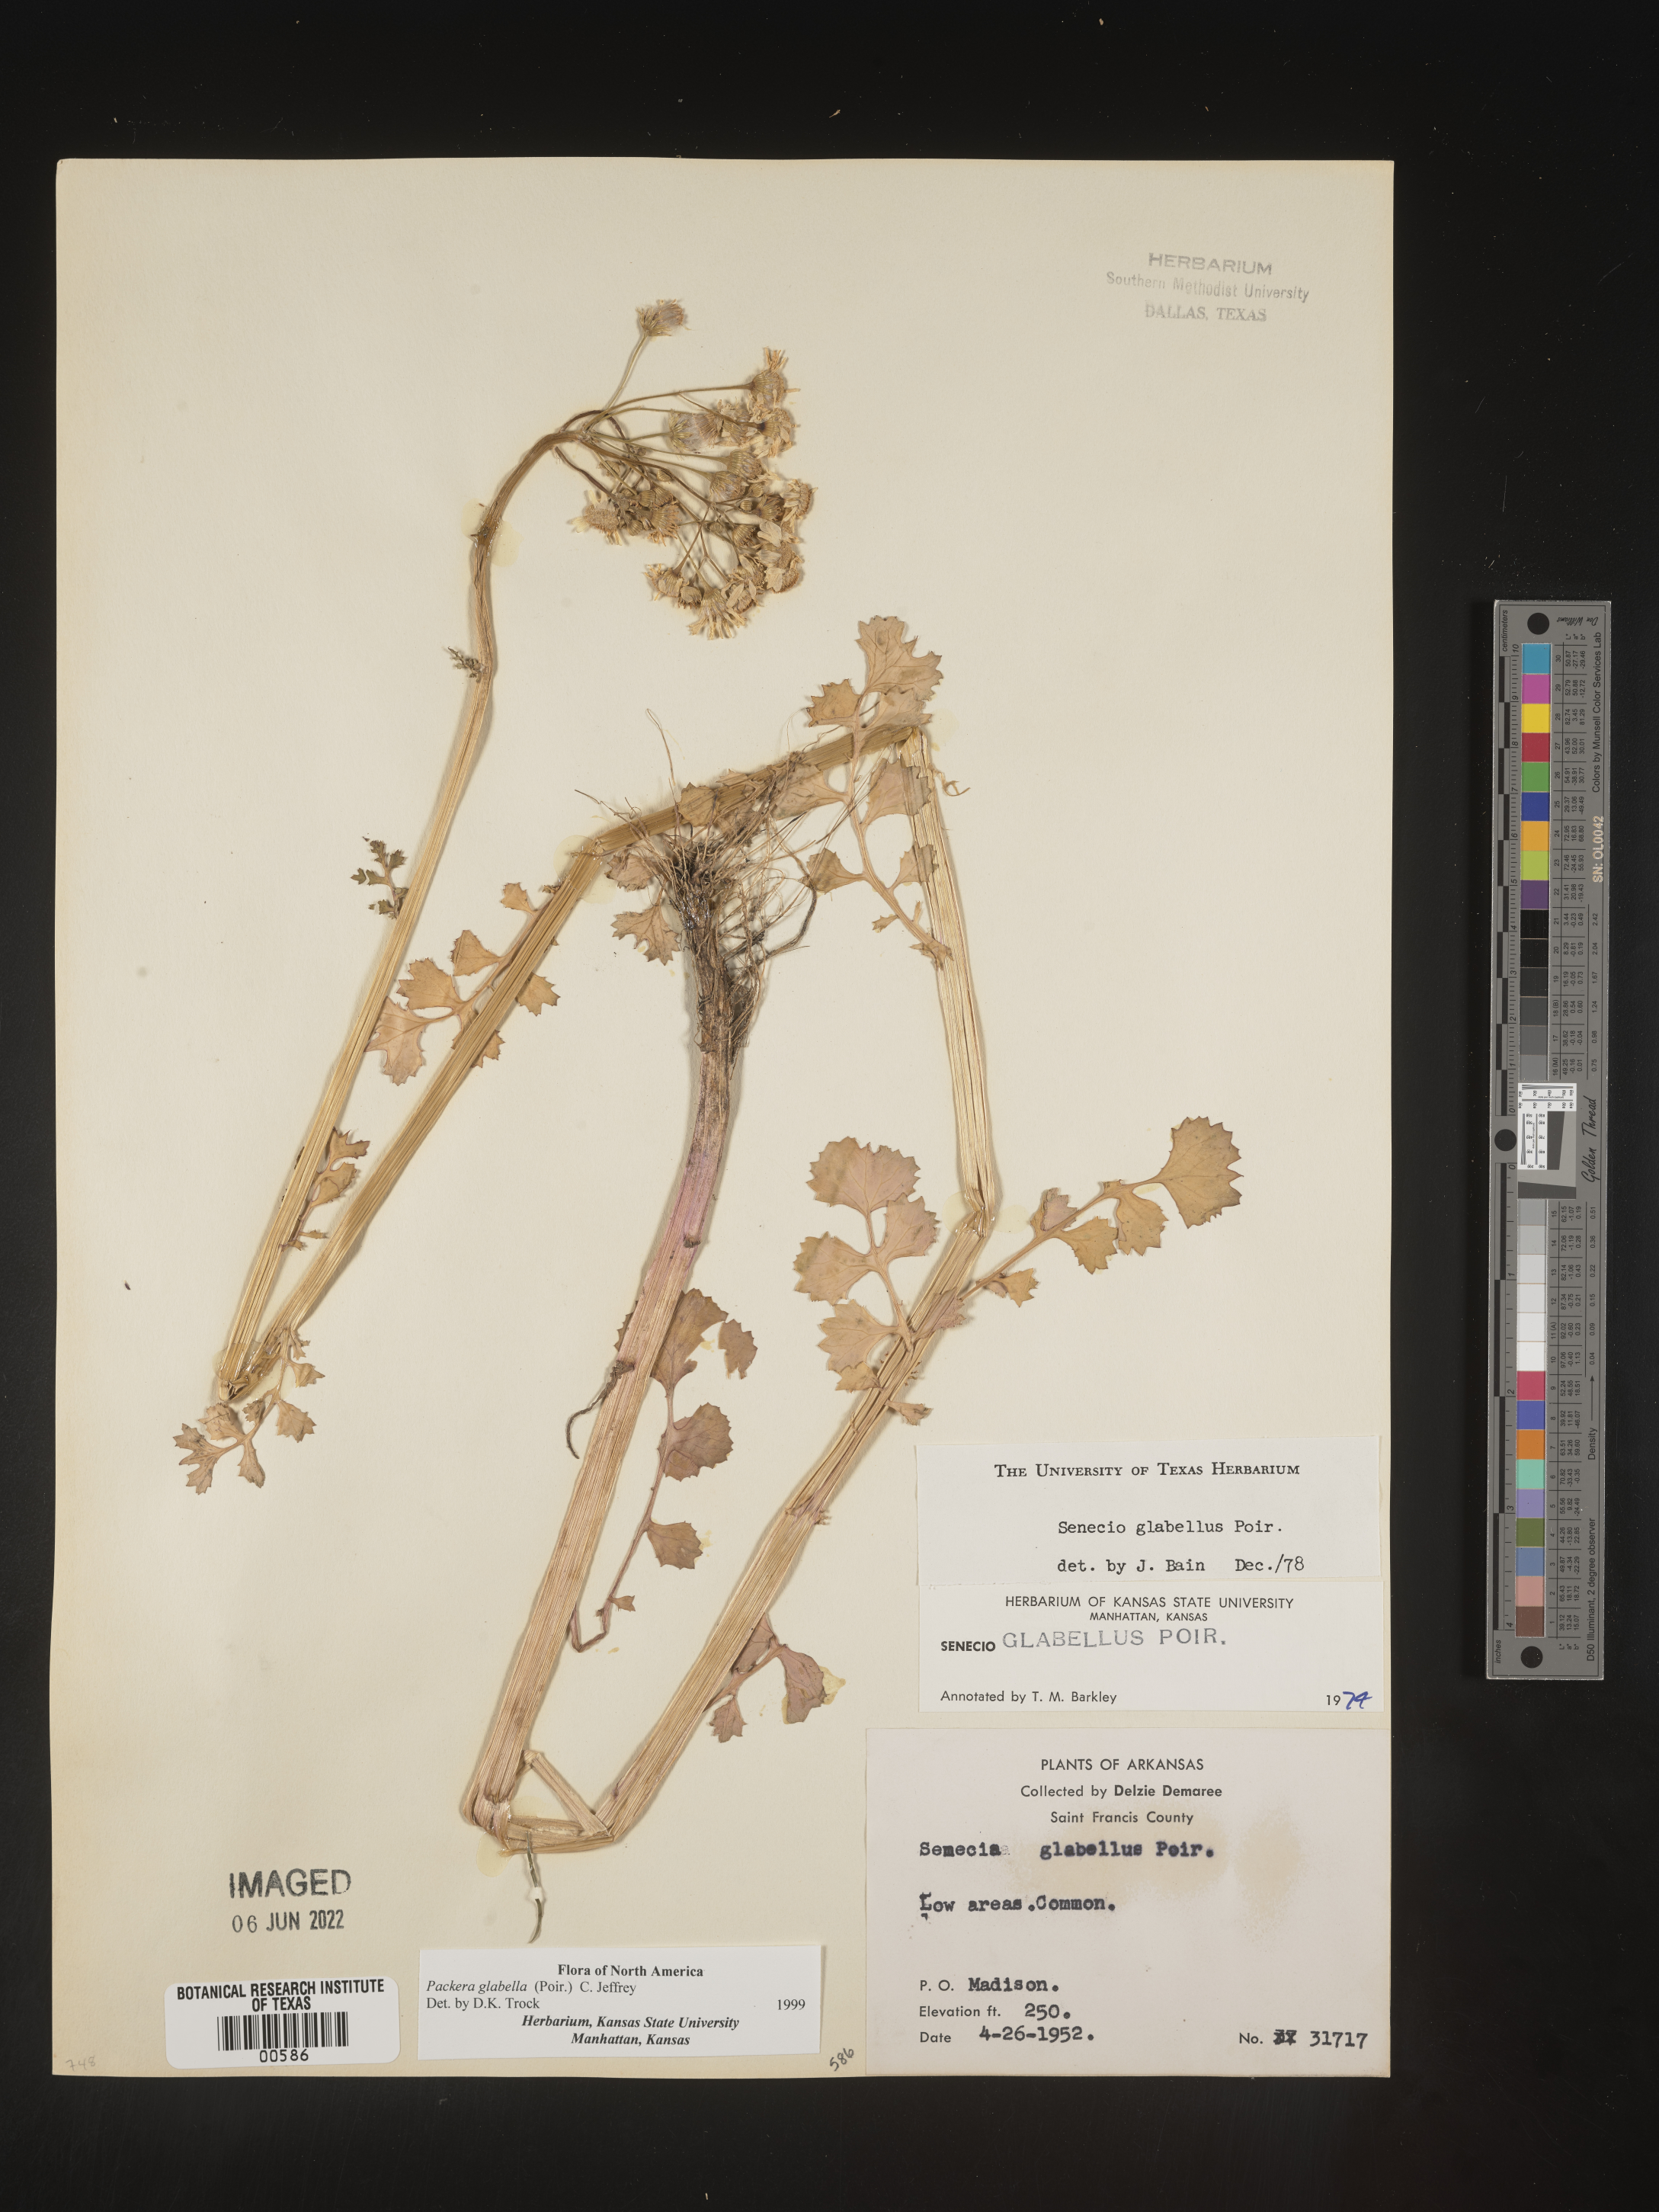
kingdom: Plantae
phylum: Tracheophyta
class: Magnoliopsida
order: Asterales
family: Asteraceae
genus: Packera
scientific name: Packera glabella
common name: Butterweed
